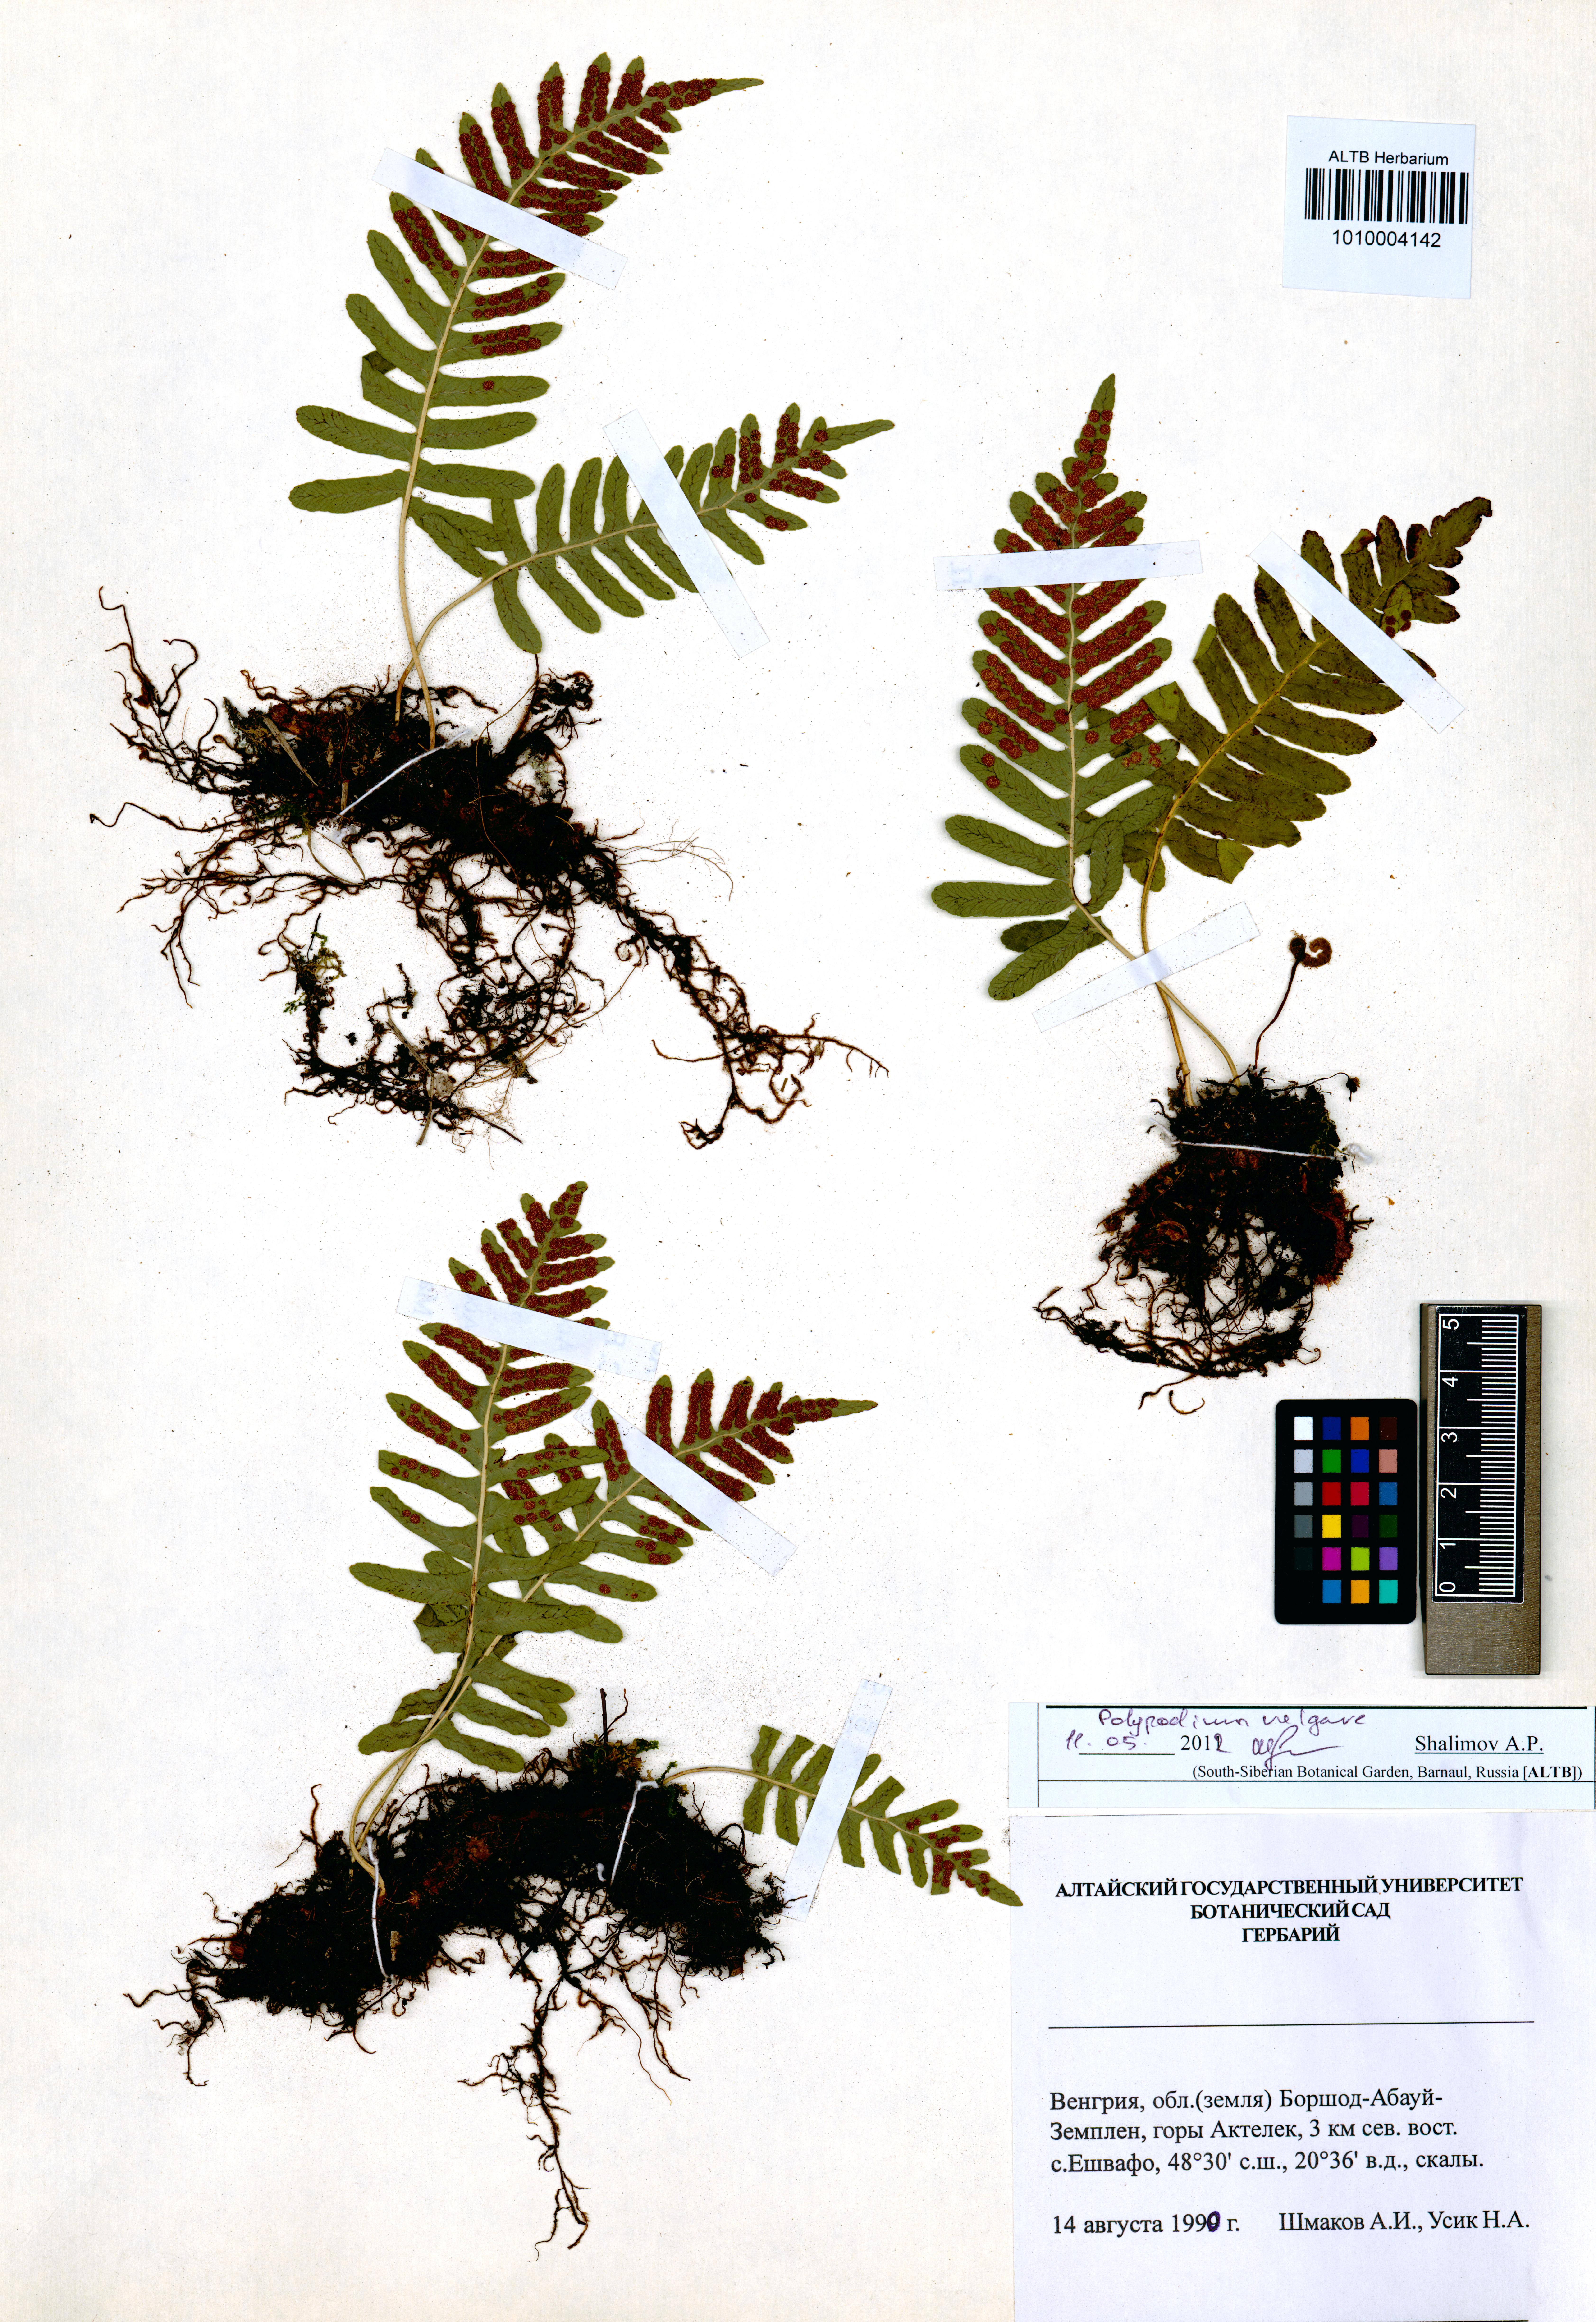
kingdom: Plantae
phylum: Tracheophyta
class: Polypodiopsida
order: Polypodiales
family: Polypodiaceae
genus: Polypodium
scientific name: Polypodium vulgare
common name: Common polypody
